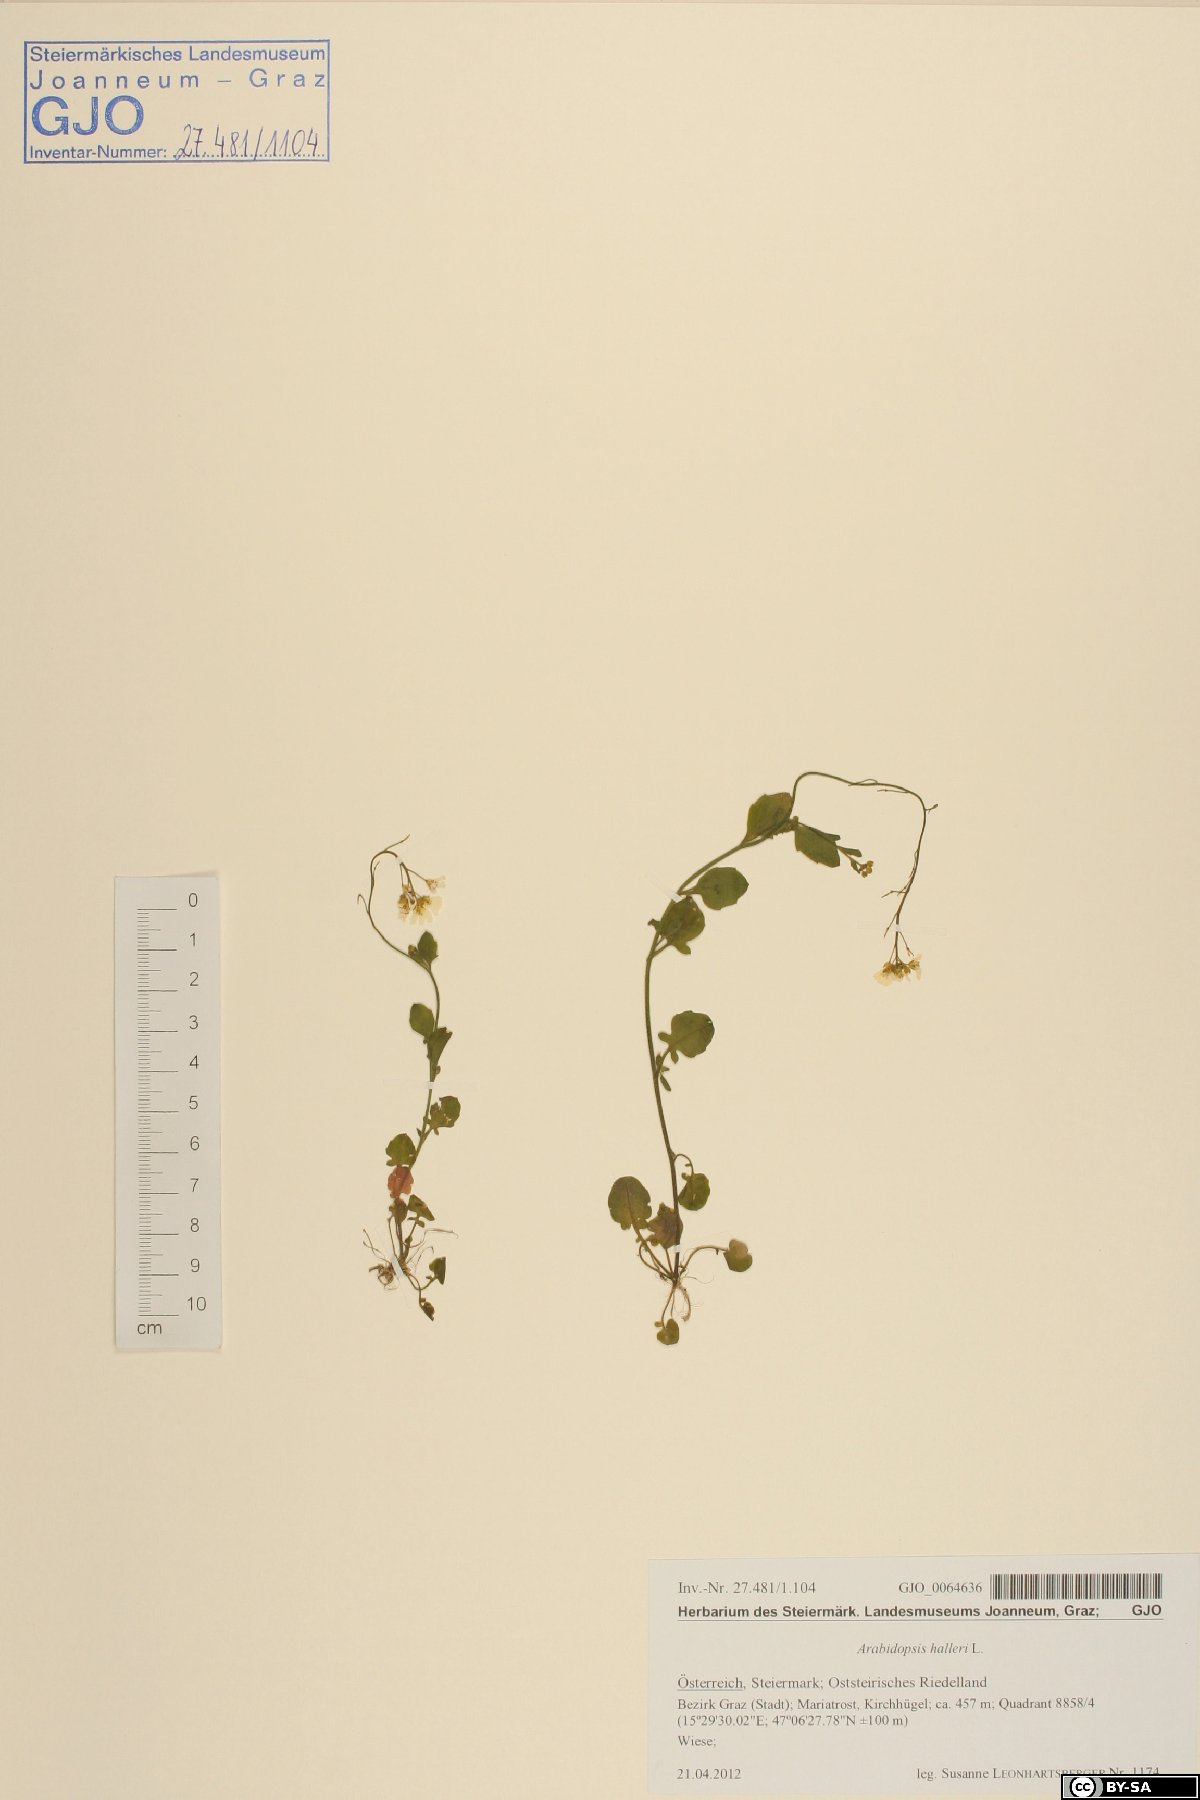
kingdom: Plantae
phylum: Tracheophyta
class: Magnoliopsida
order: Brassicales
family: Brassicaceae
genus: Arabidopsis
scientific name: Arabidopsis halleri
